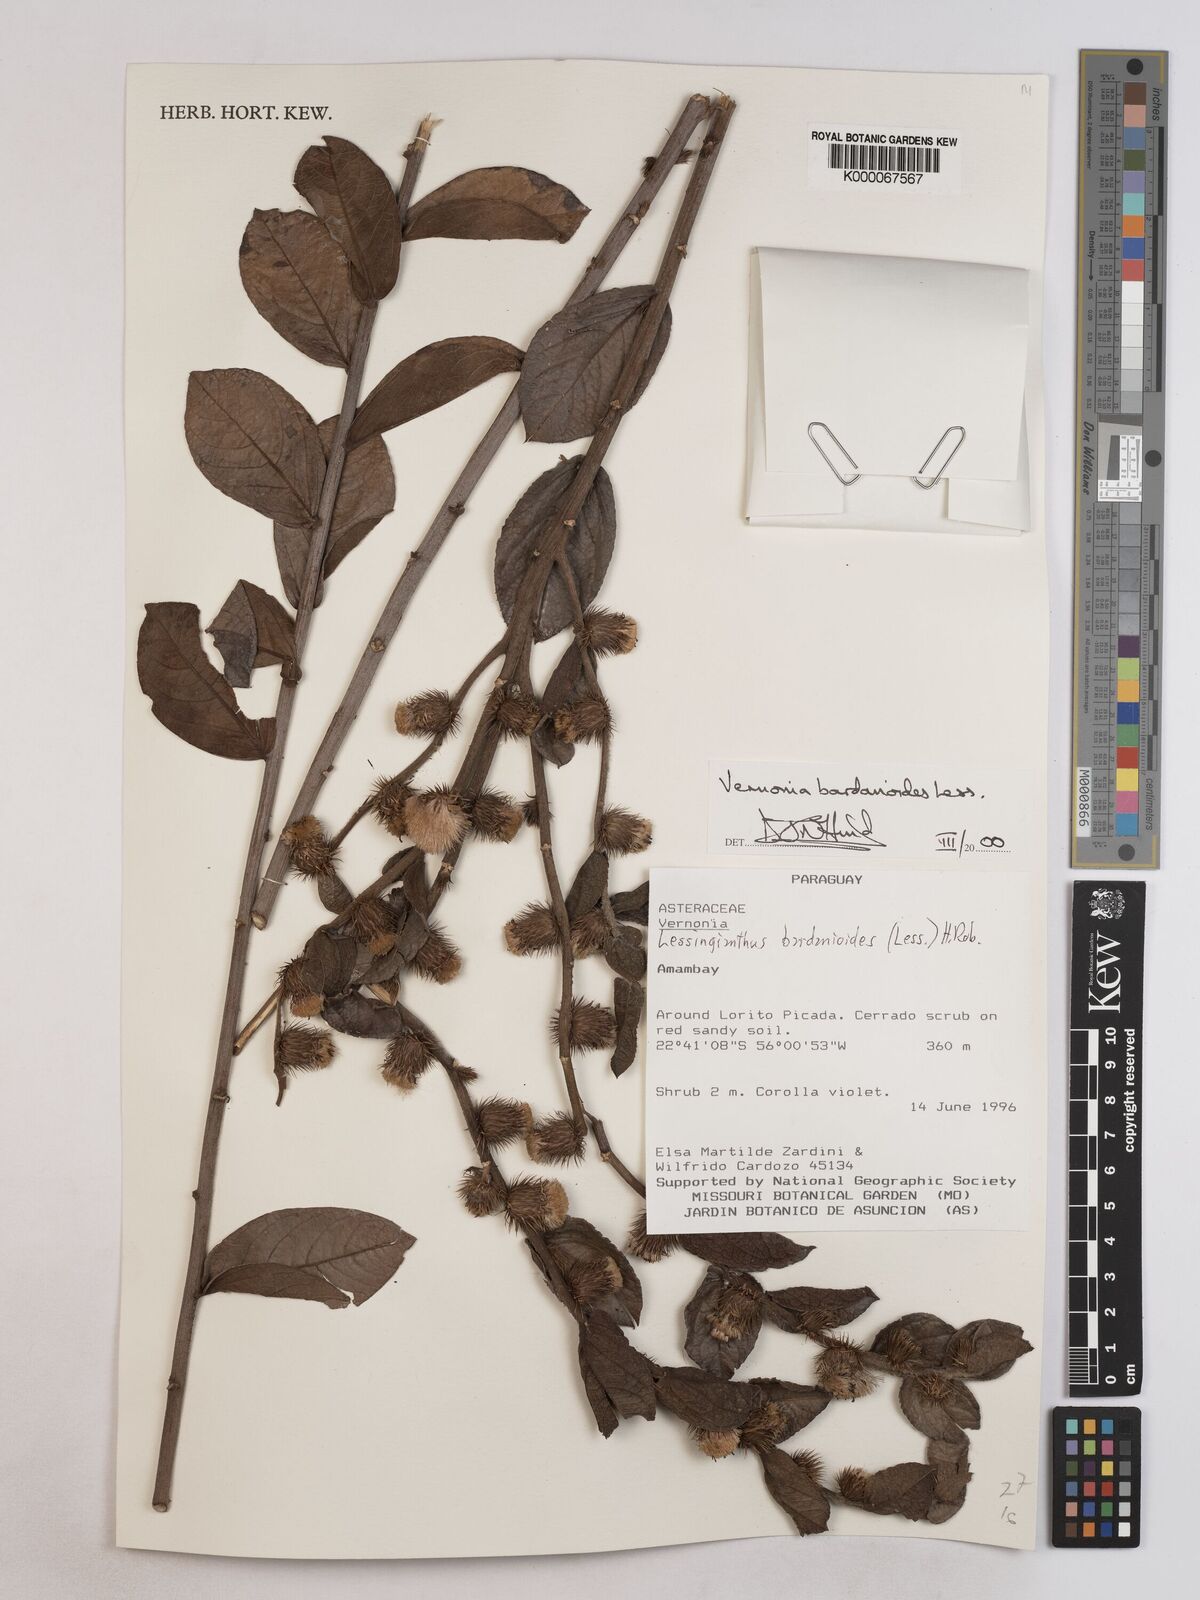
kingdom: Plantae
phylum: Tracheophyta
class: Magnoliopsida
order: Asterales
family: Asteraceae
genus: Lessingianthus
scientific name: Lessingianthus bardanioides
